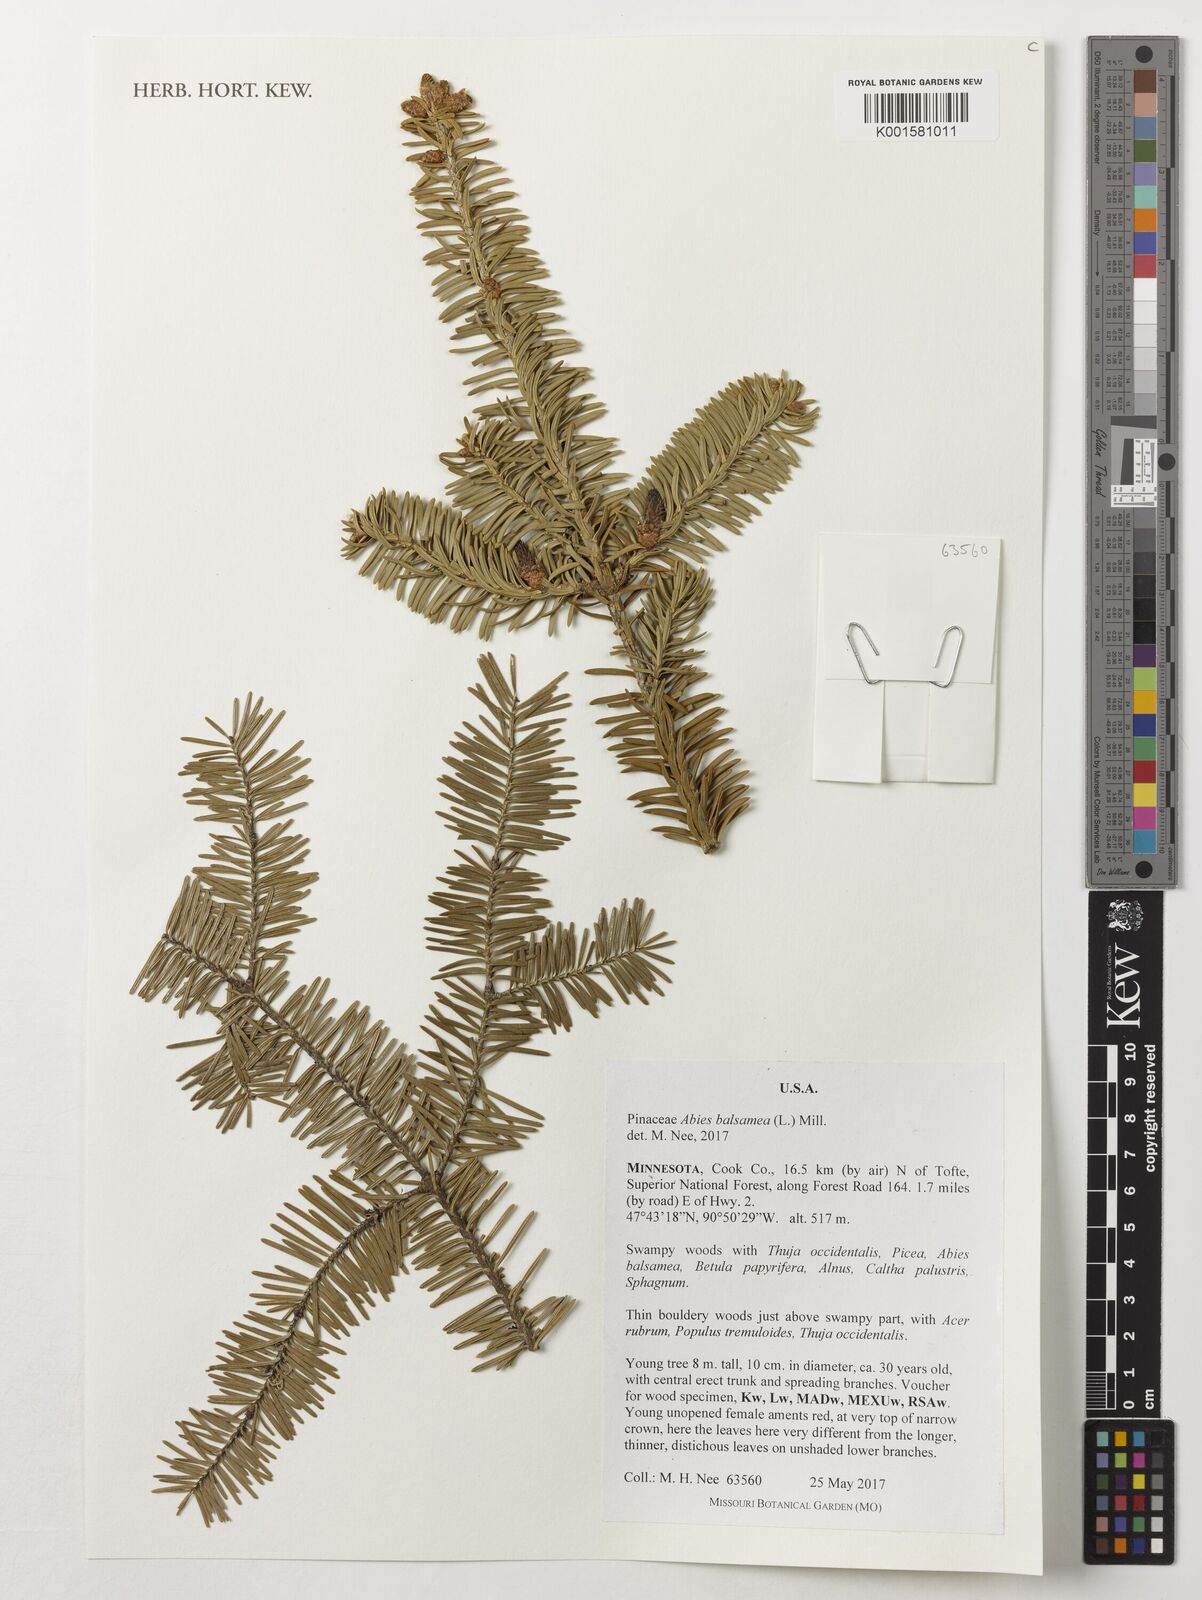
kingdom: Plantae
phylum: Tracheophyta
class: Pinopsida
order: Pinales
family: Pinaceae
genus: Abies
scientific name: Abies balsamea
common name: Balsam fir
